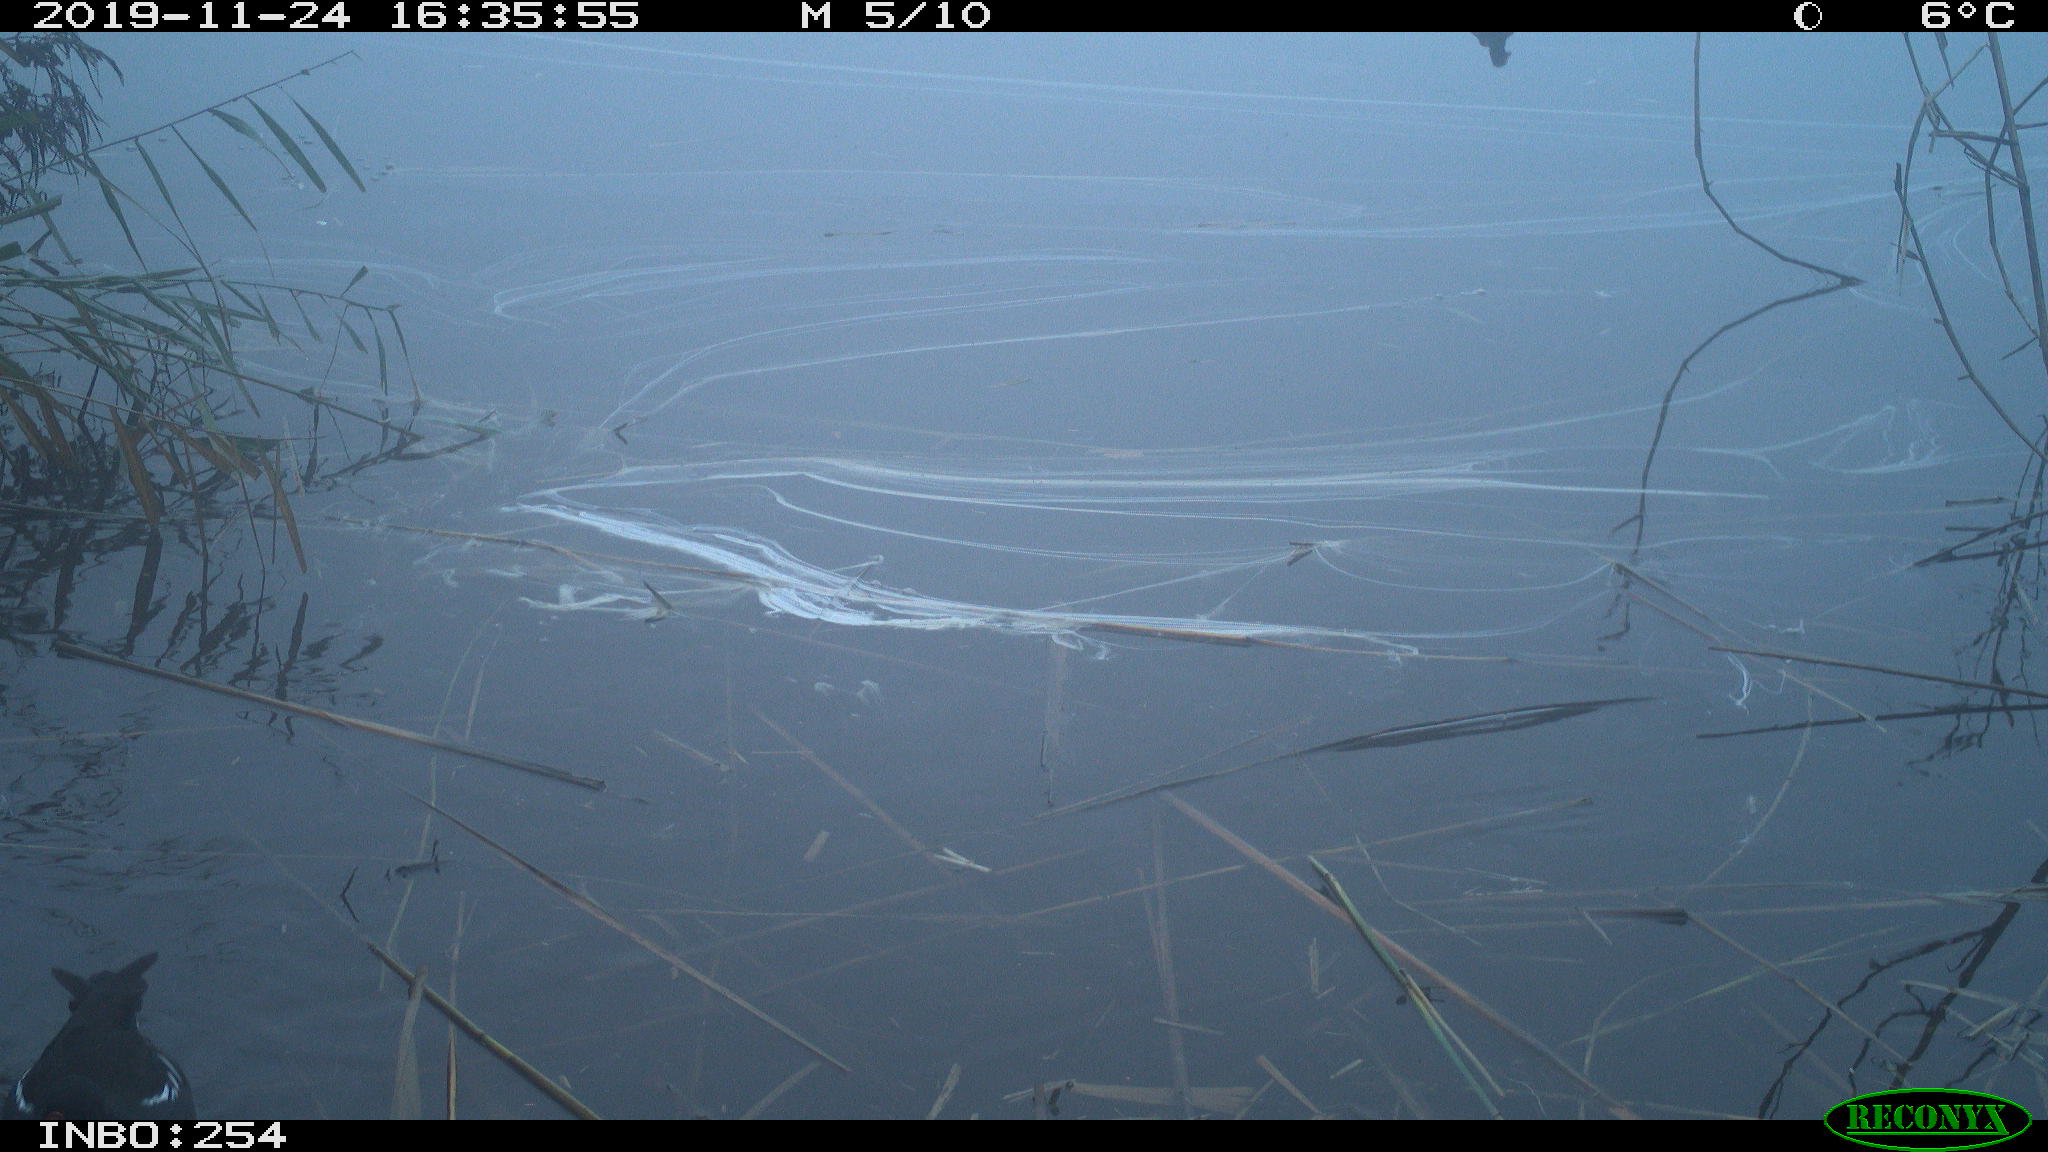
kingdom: Animalia
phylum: Chordata
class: Aves
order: Gruiformes
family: Rallidae
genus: Gallinula
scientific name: Gallinula chloropus
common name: Common moorhen
